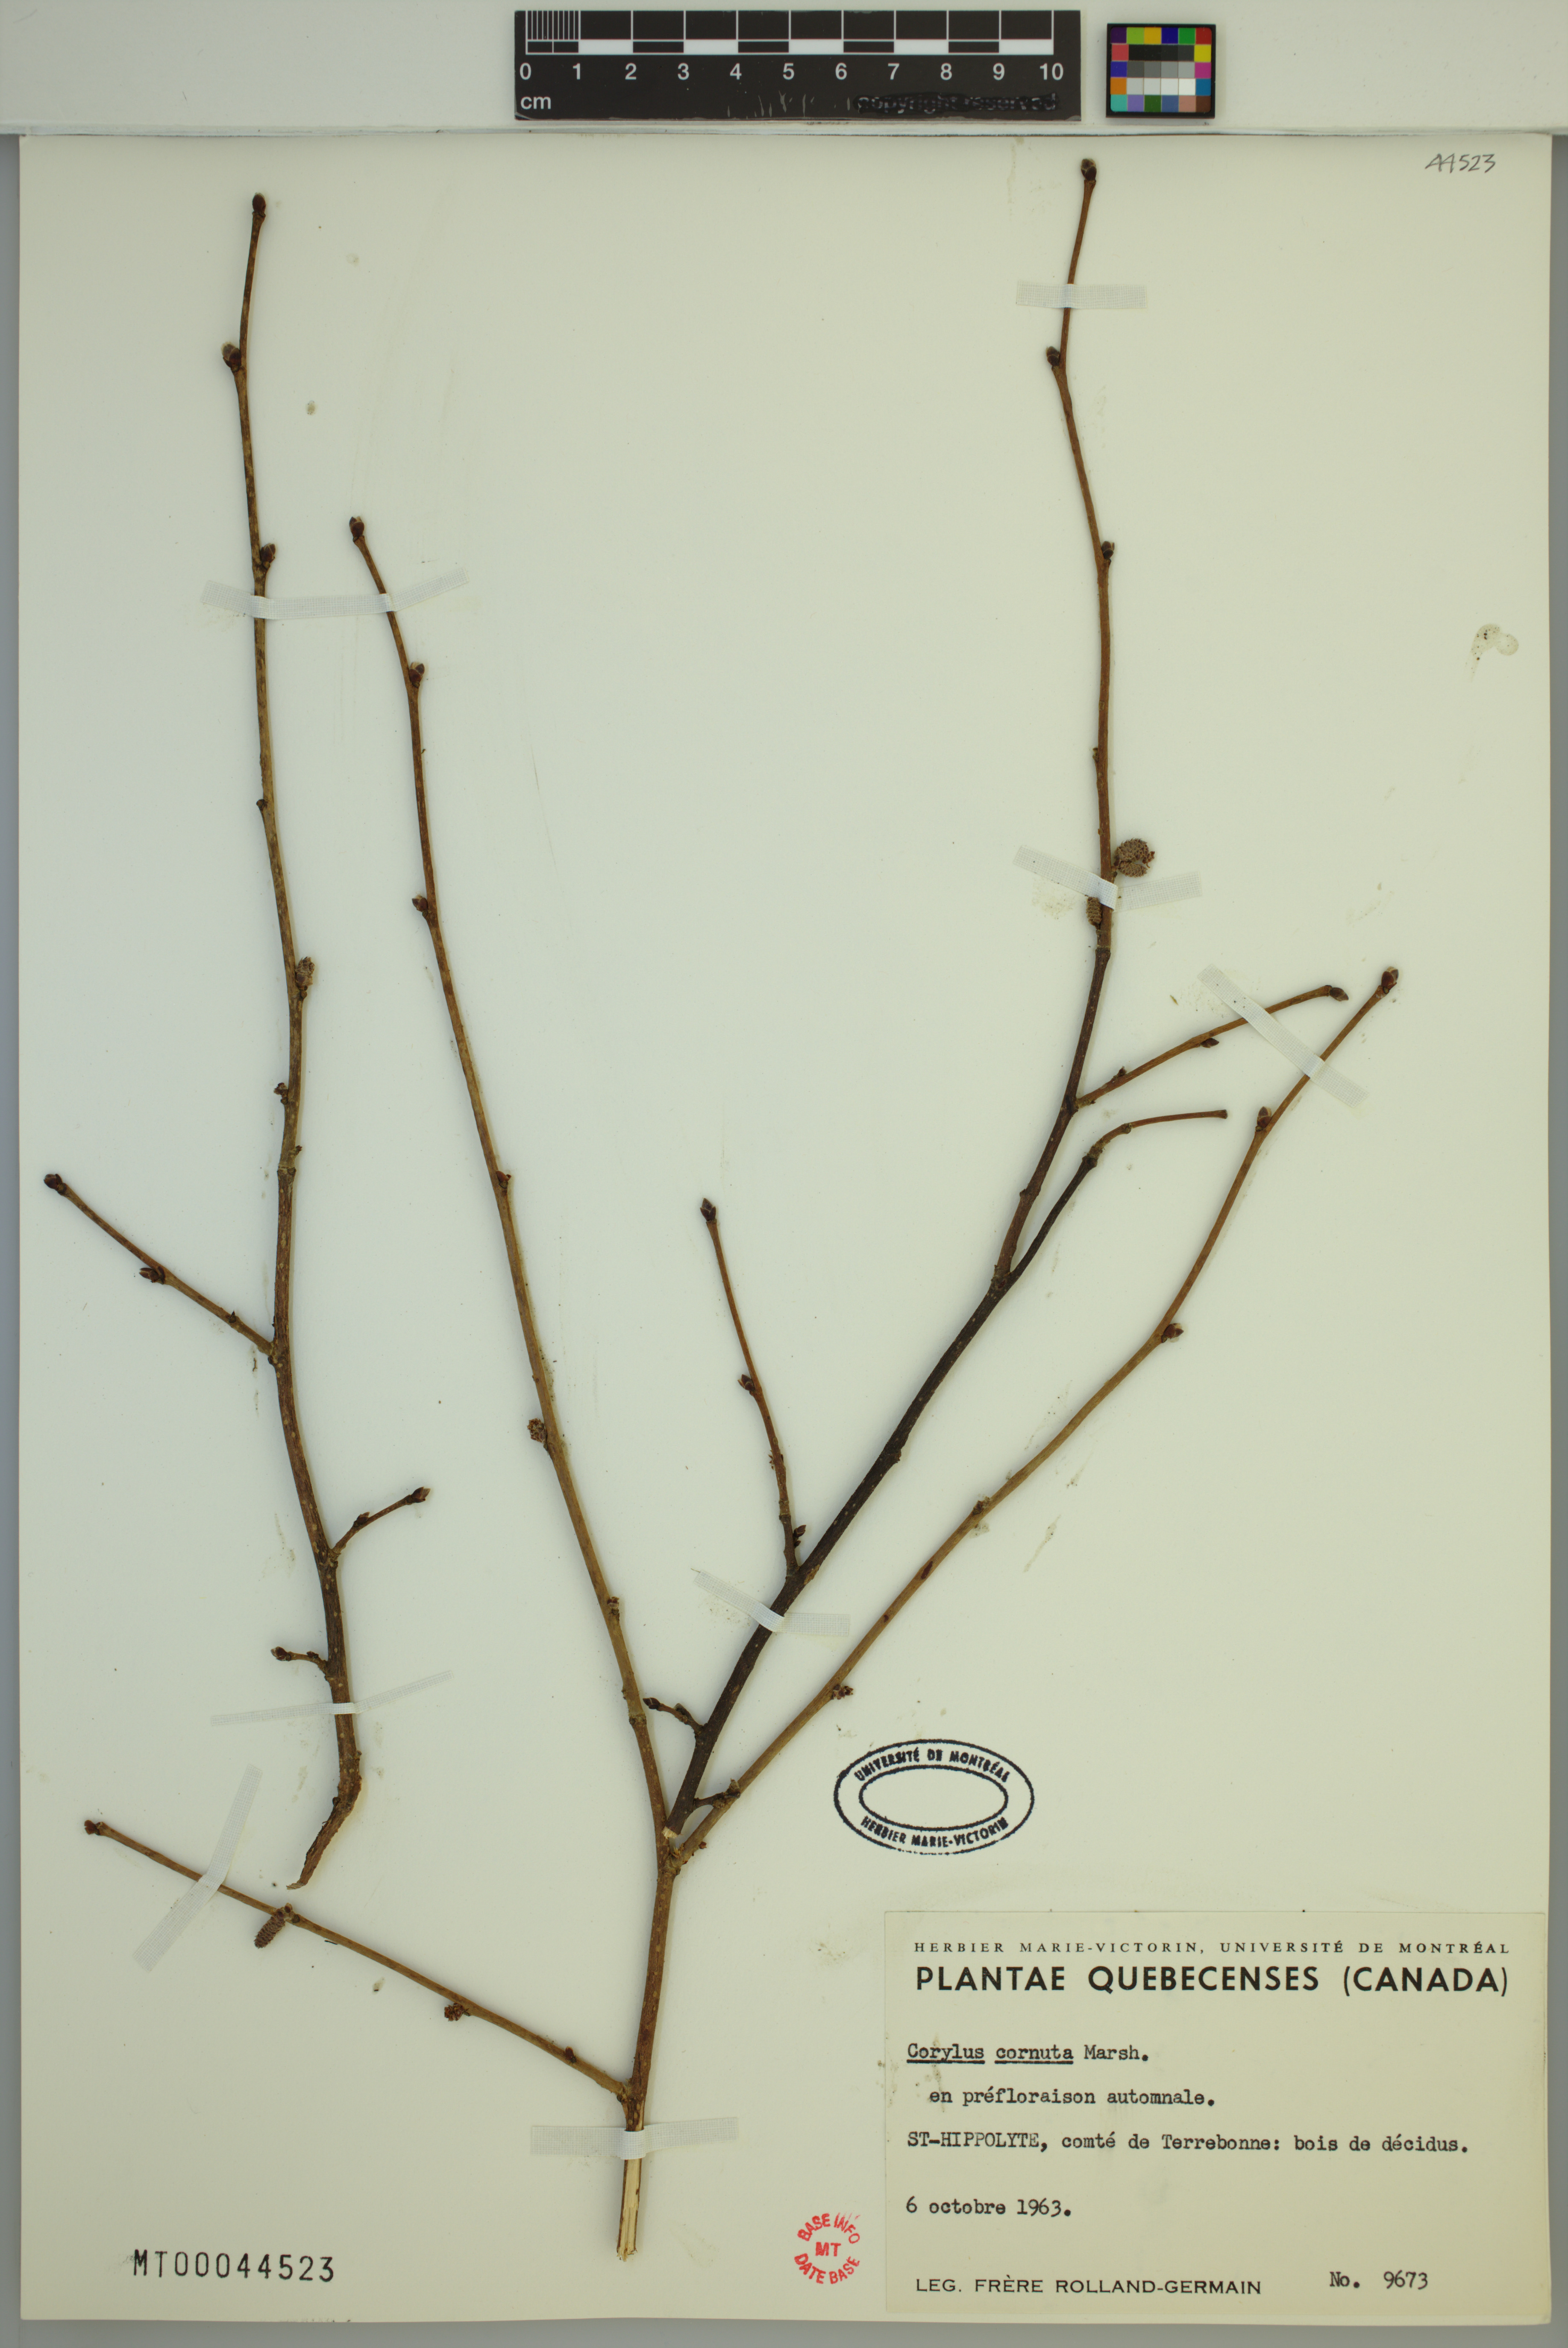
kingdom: Plantae
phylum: Tracheophyta
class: Magnoliopsida
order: Fagales
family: Betulaceae
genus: Corylus
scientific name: Corylus cornuta
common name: Beaked hazel
